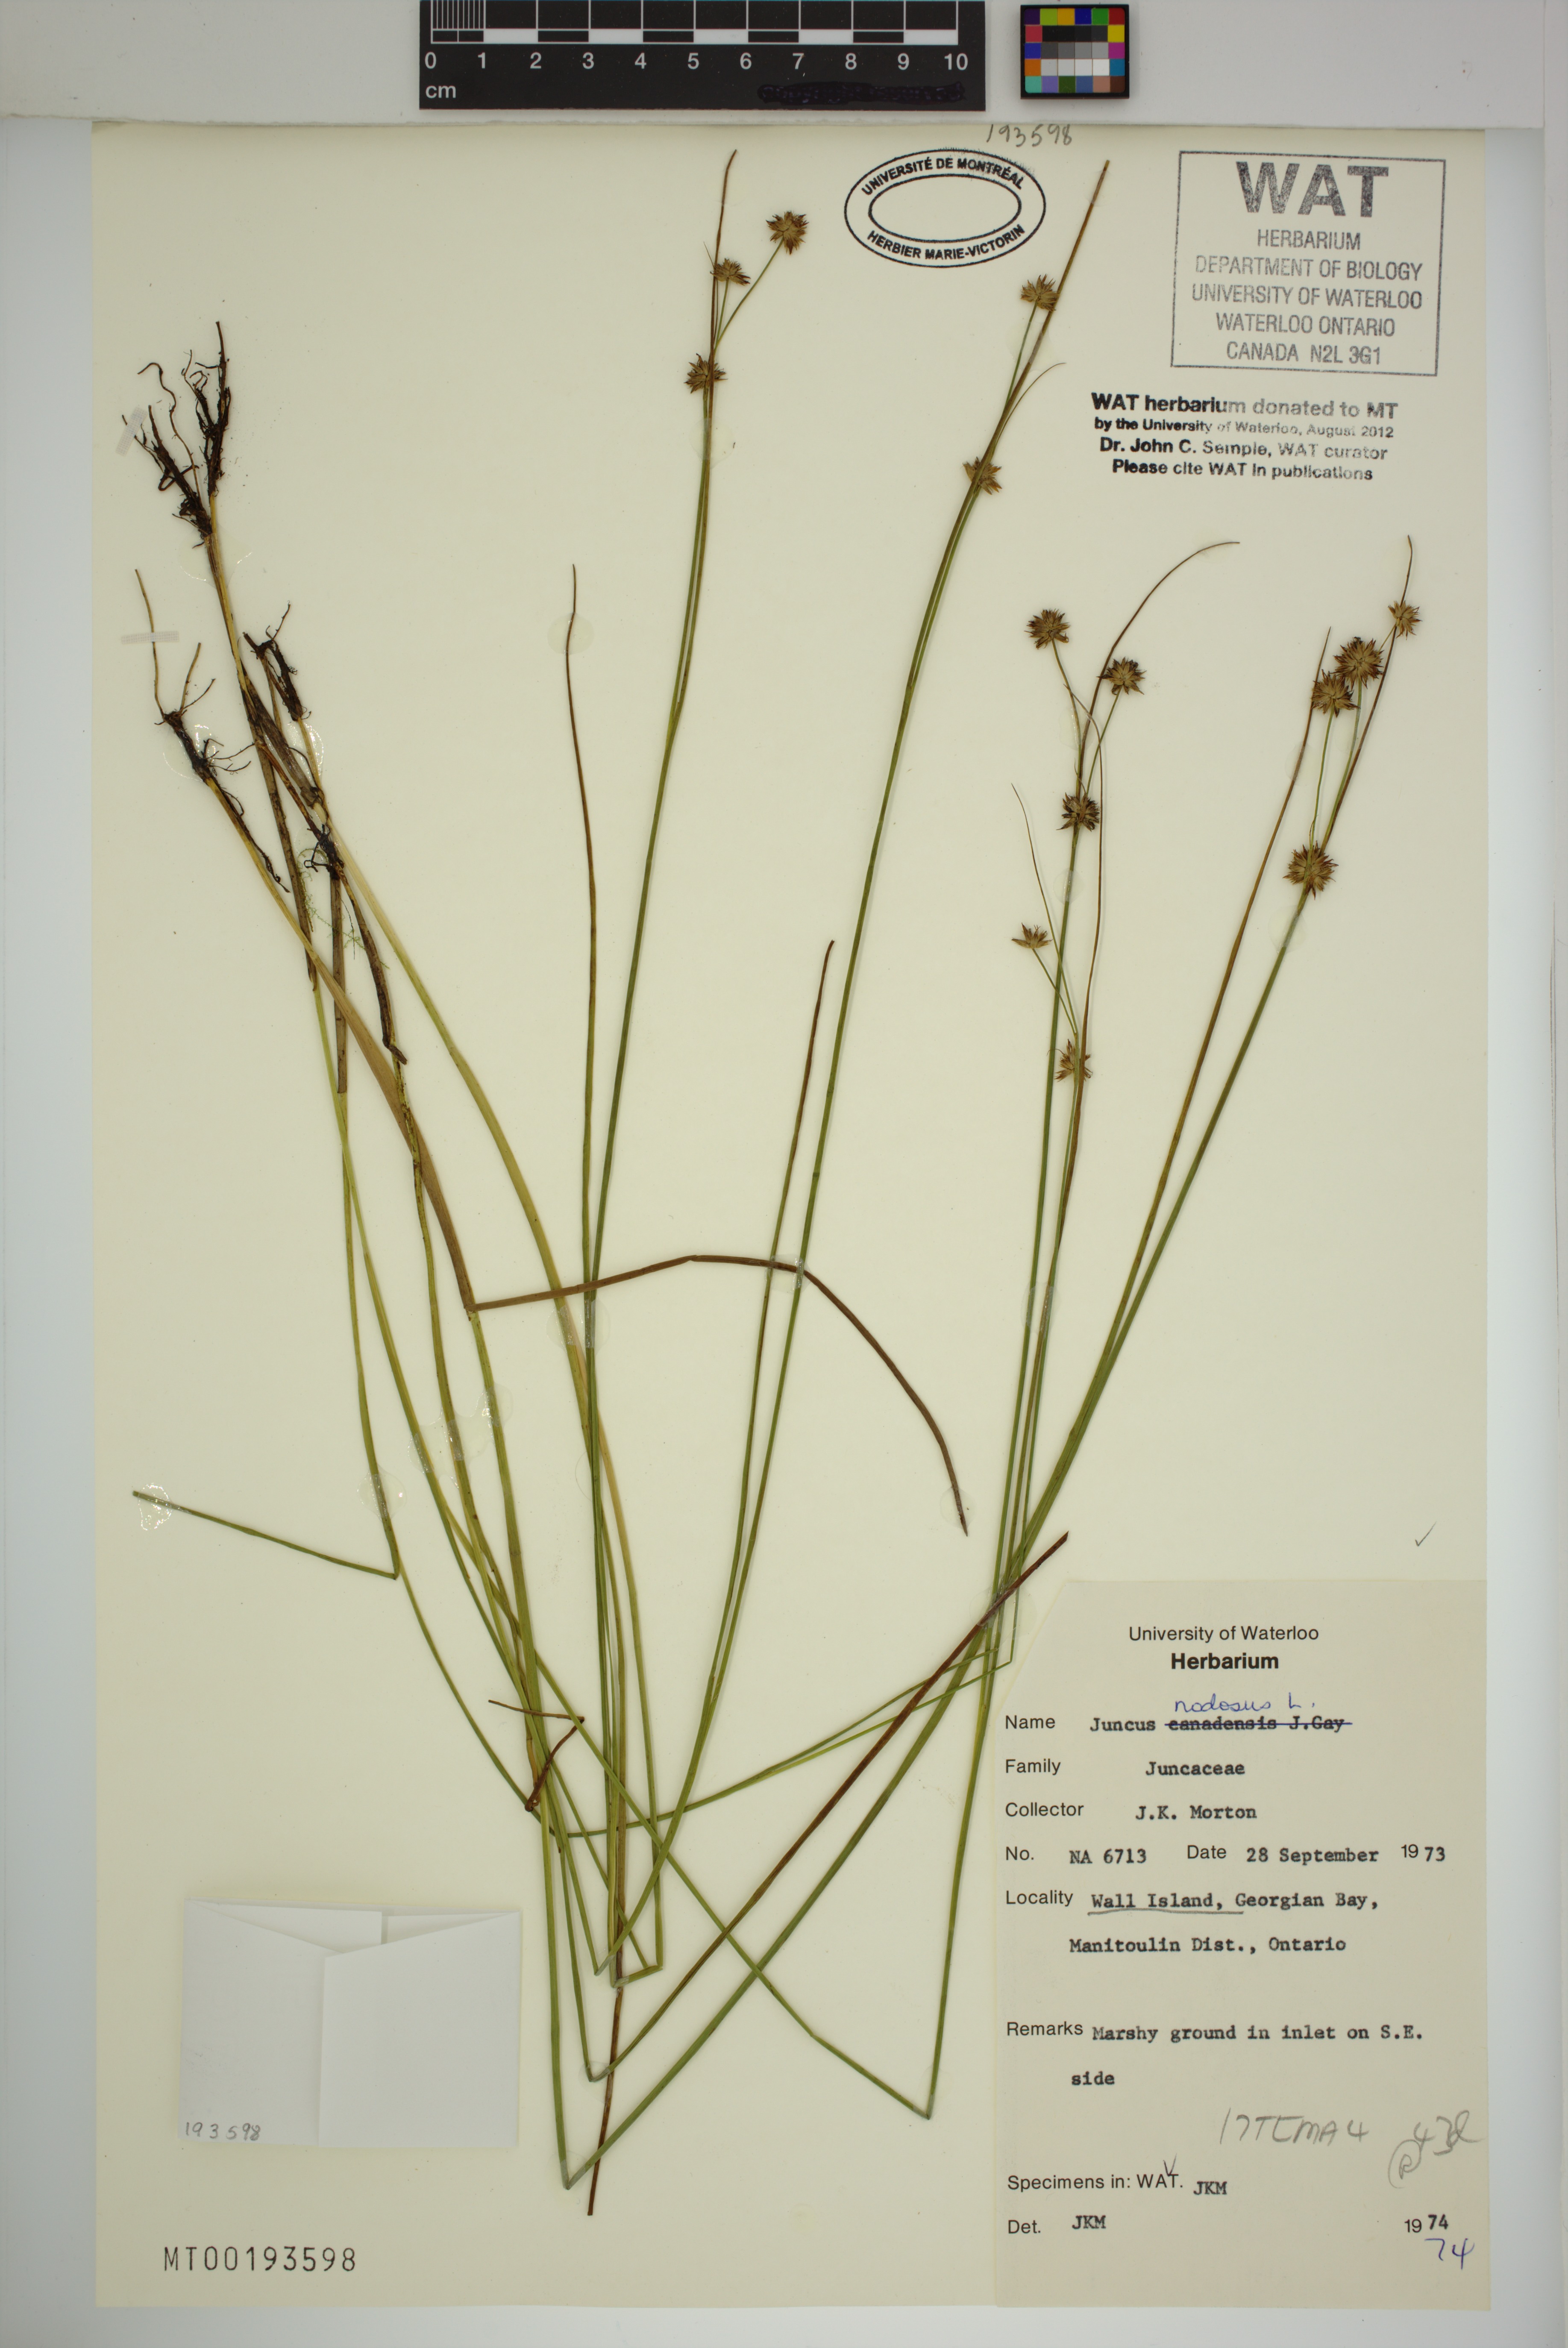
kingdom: Plantae
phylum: Tracheophyta
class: Liliopsida
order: Poales
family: Juncaceae
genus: Juncus
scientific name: Juncus nodosus
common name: Knotted rush
